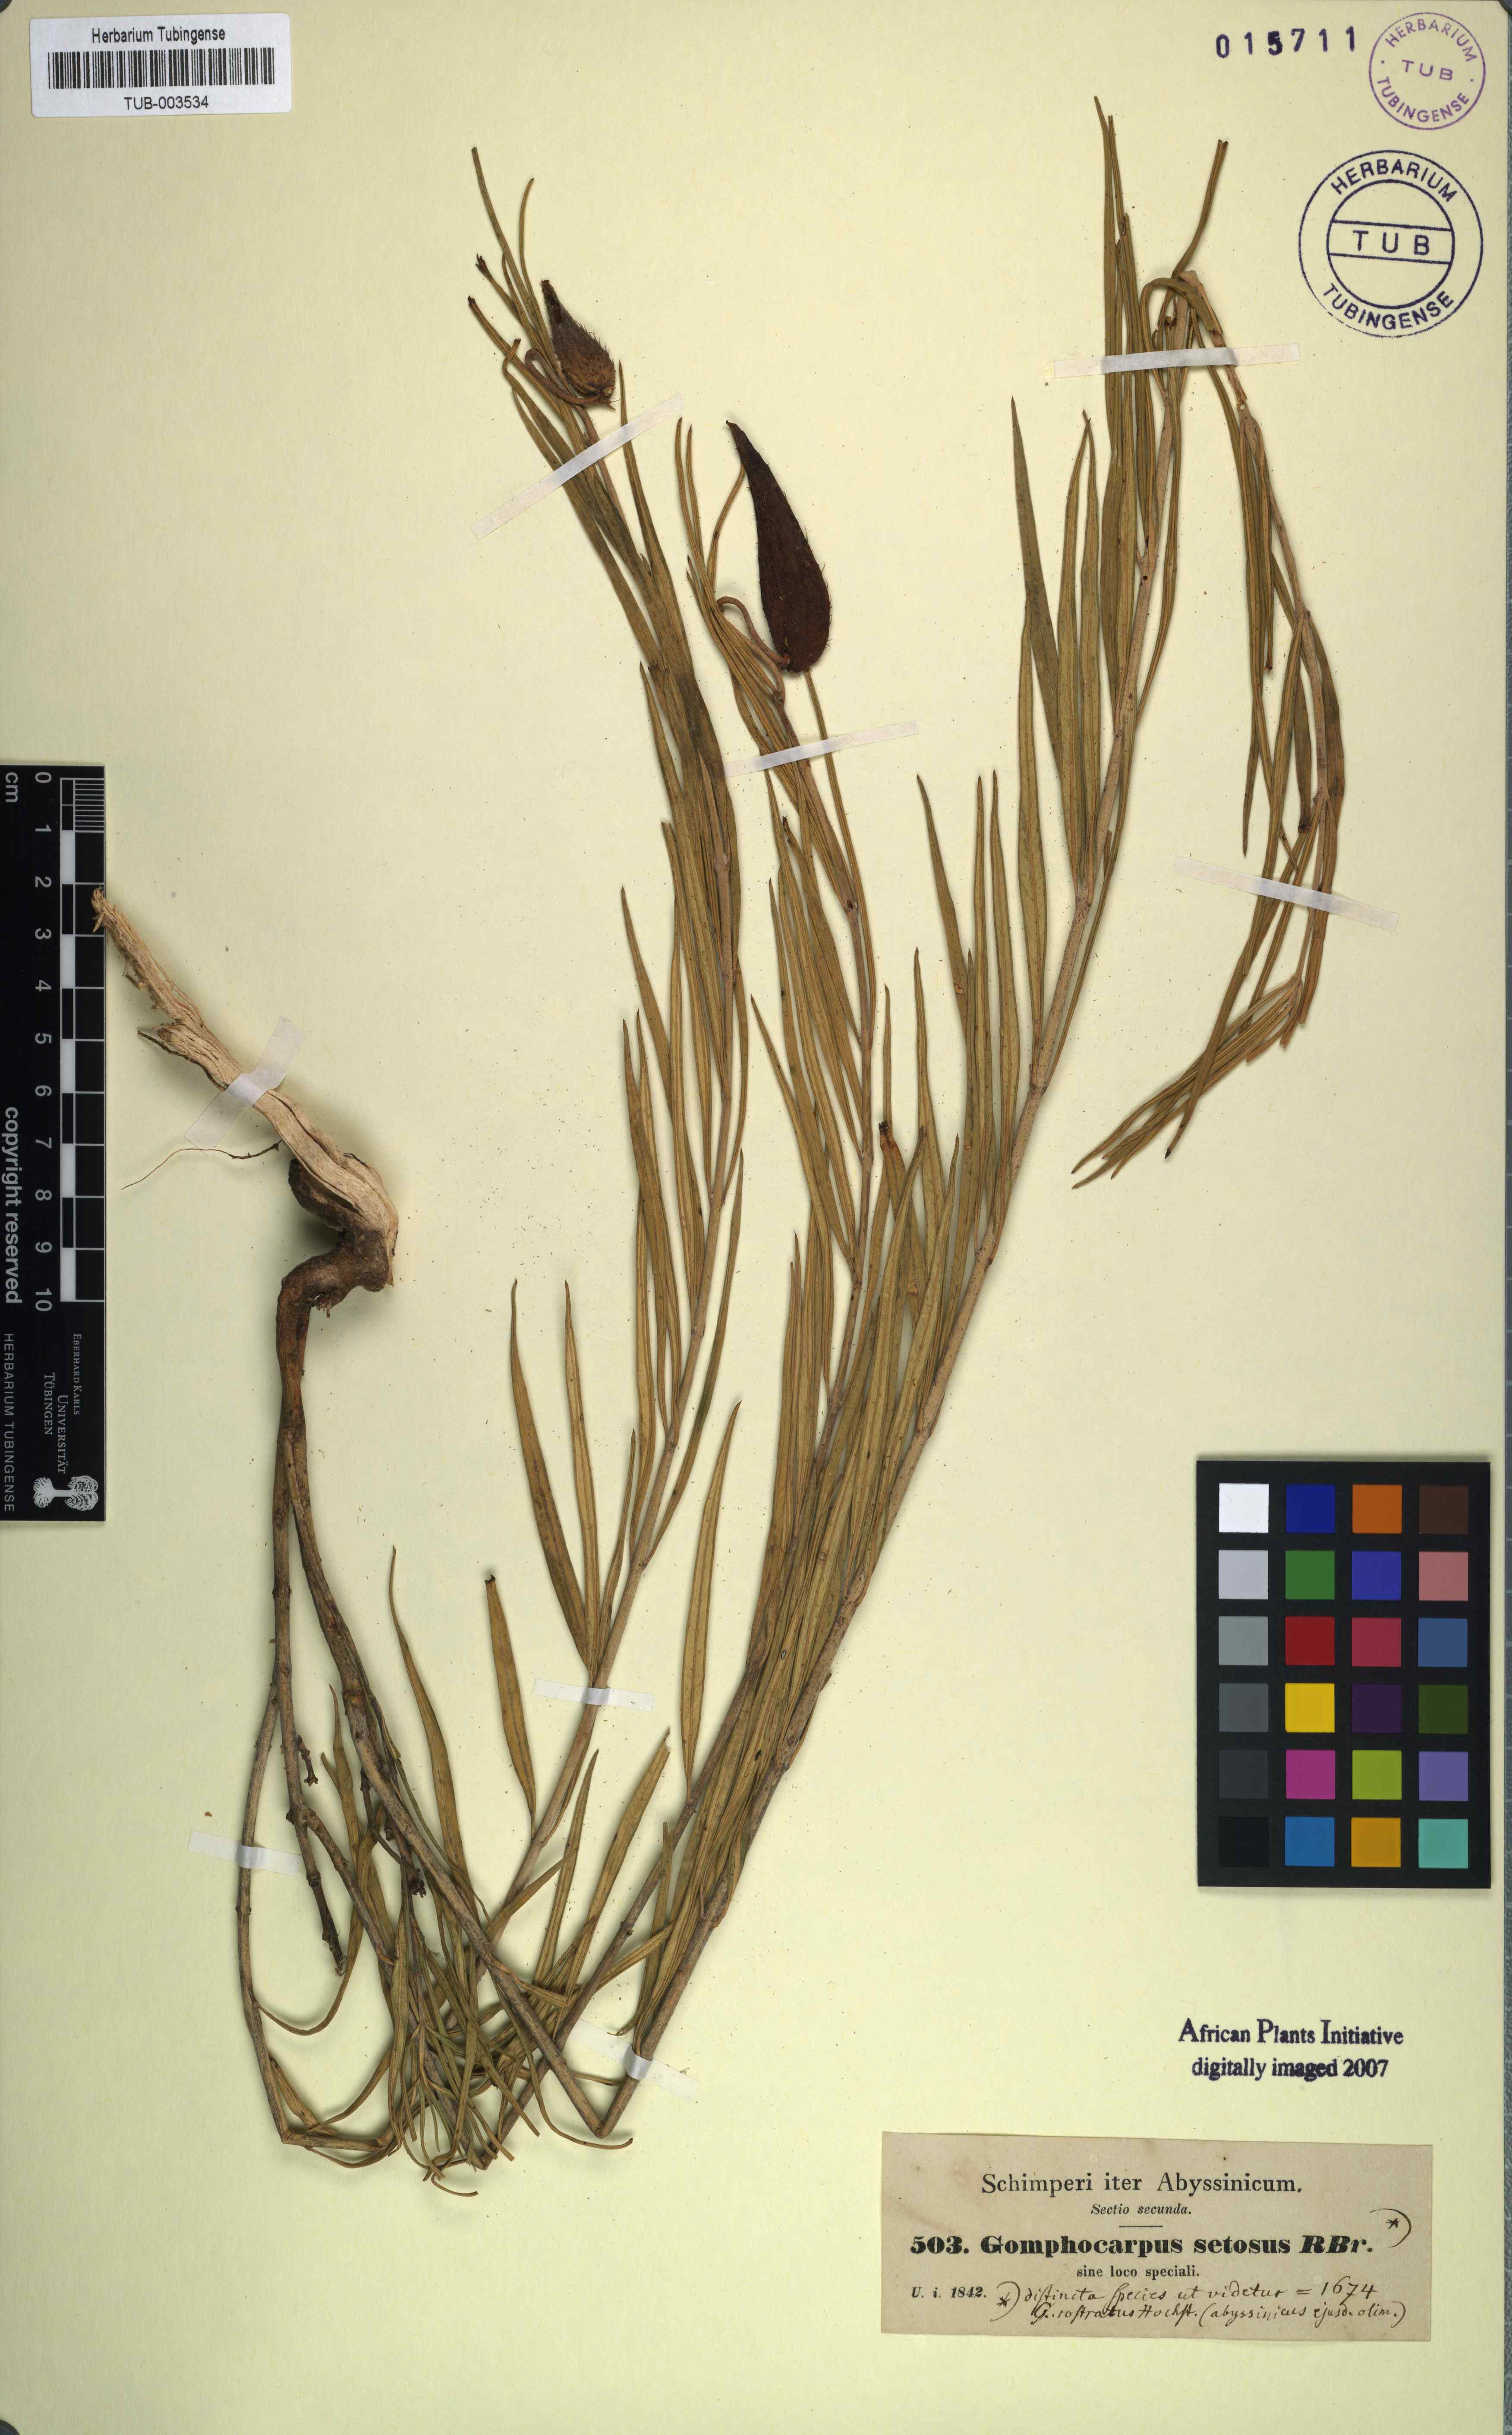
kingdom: Plantae
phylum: Tracheophyta
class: Magnoliopsida
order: Gentianales
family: Apocynaceae
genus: Gomphocarpus
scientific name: Gomphocarpus fruticosus
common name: Milkweed
